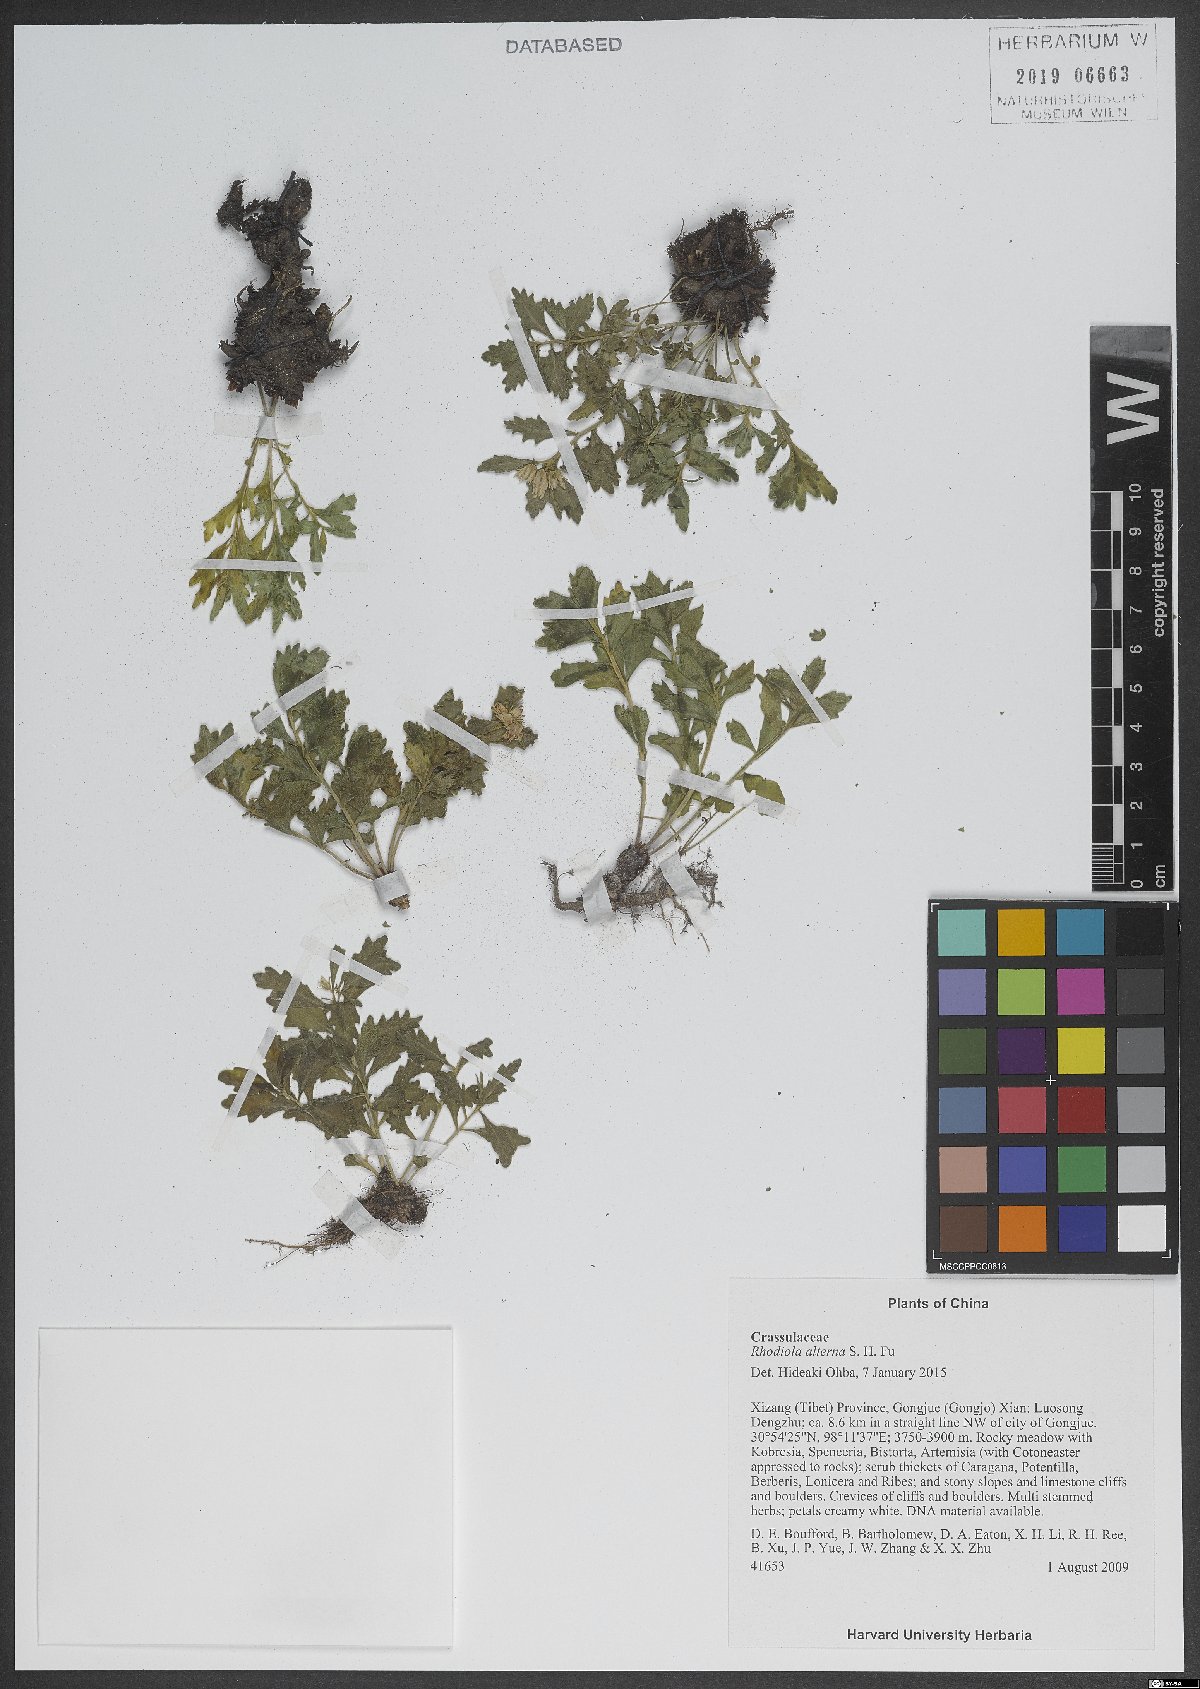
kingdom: Plantae
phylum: Tracheophyta
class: Magnoliopsida
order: Saxifragales
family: Crassulaceae
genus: Rhodiola
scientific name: Rhodiola chrysanthemifolia
